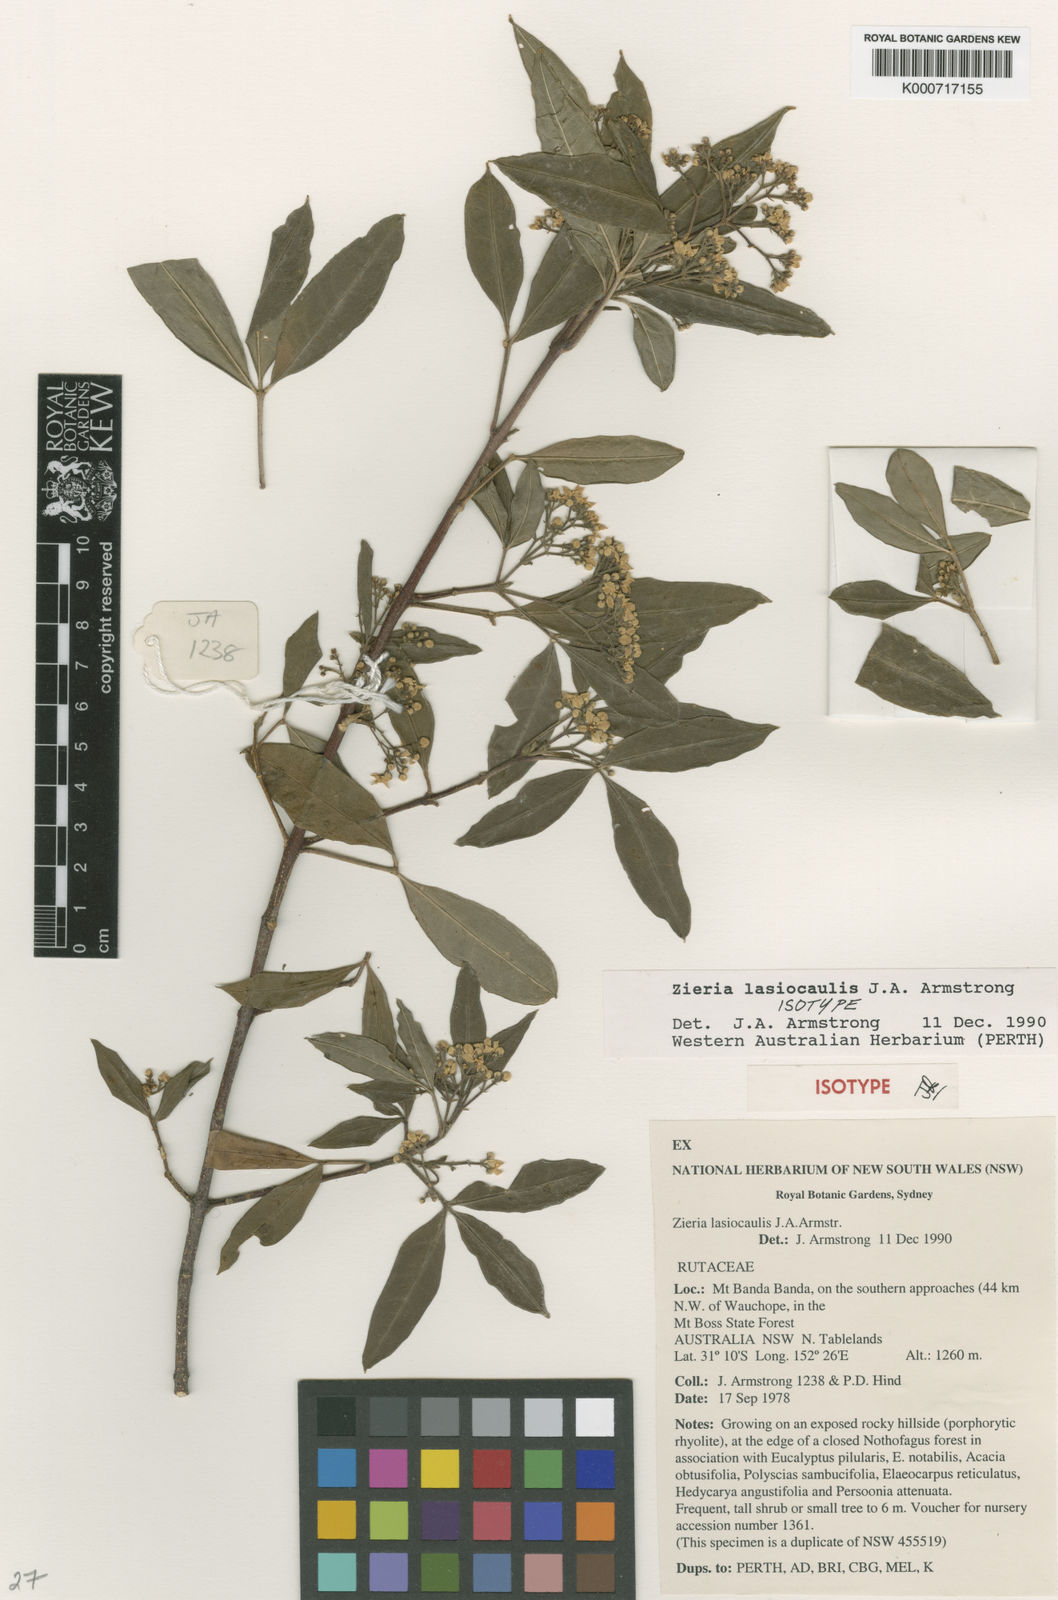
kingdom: Plantae
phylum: Tracheophyta
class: Magnoliopsida
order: Sapindales
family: Rutaceae
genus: Zieria
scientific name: Zieria lasiocaulis
